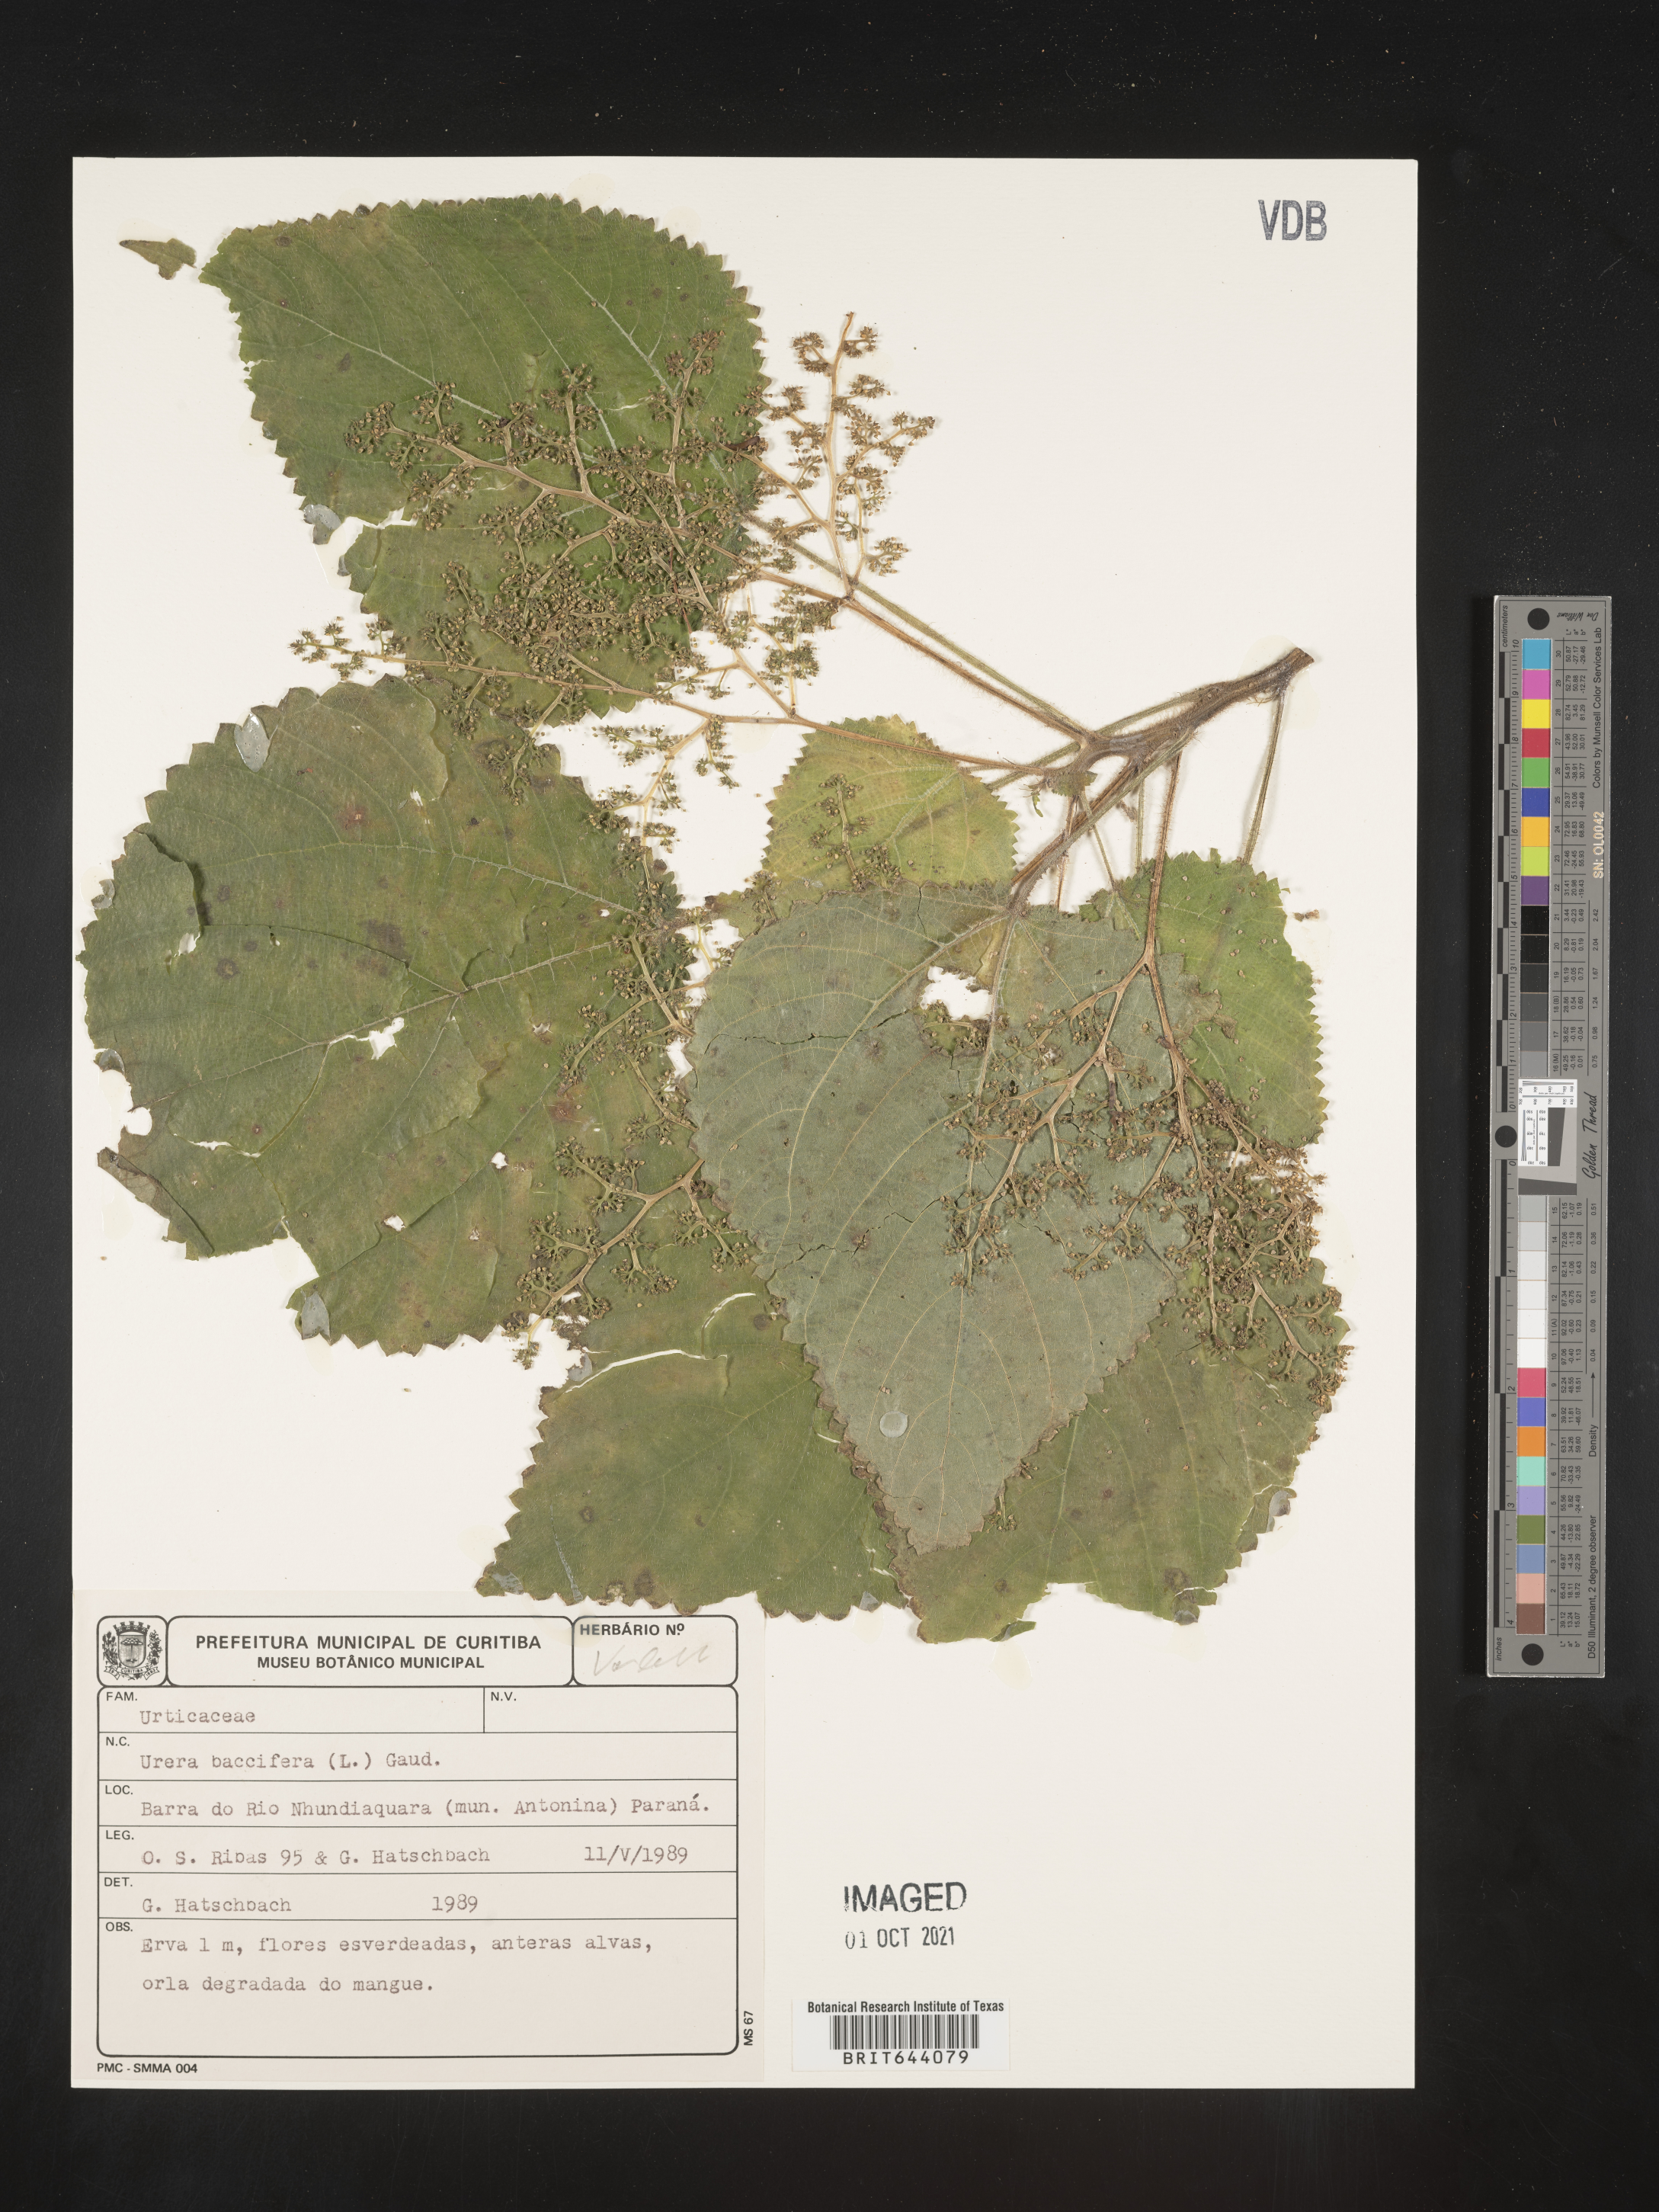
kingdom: Plantae
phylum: Tracheophyta
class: Magnoliopsida
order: Rosales
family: Urticaceae
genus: Urera
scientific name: Urera
